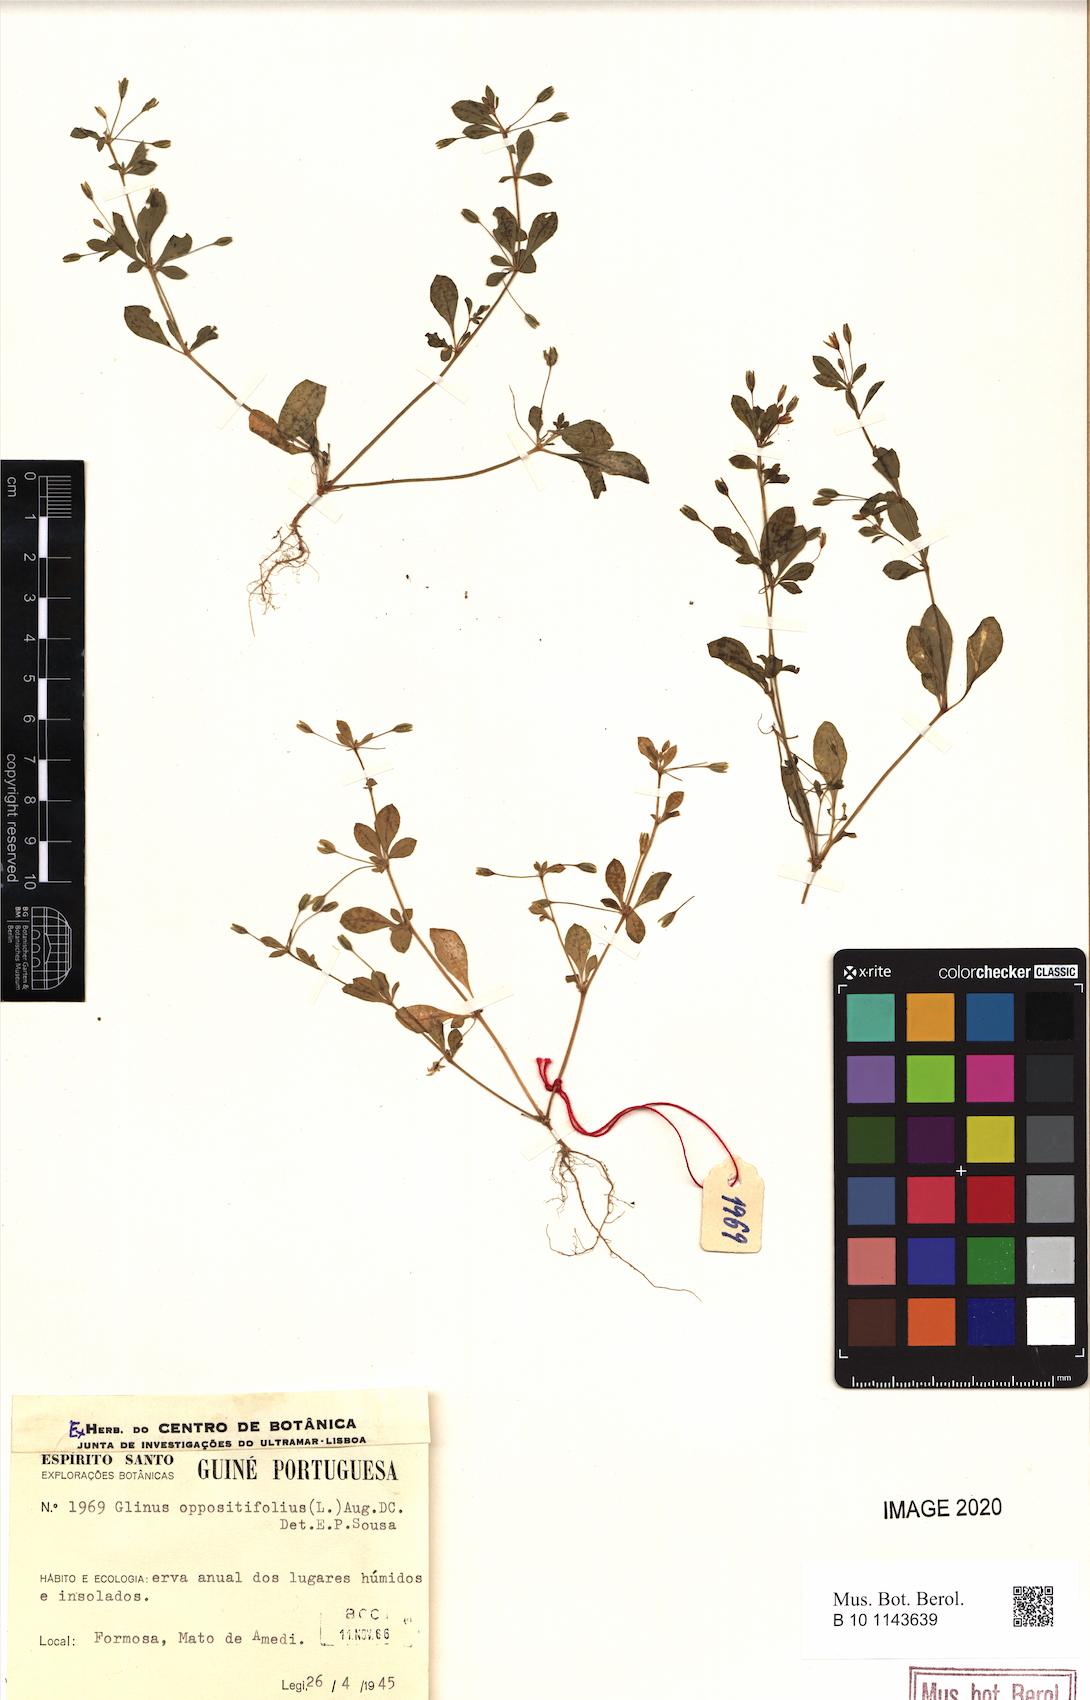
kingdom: Plantae
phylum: Tracheophyta
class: Magnoliopsida
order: Caryophyllales
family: Molluginaceae
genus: Glinus
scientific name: Glinus oppositifolius
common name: Slender carpetweed
